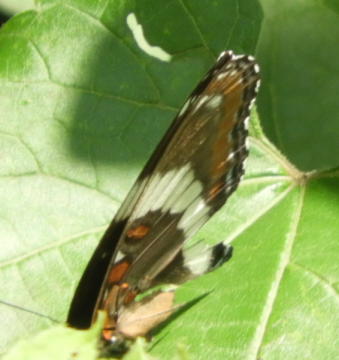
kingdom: Animalia
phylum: Arthropoda
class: Insecta
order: Lepidoptera
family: Nymphalidae
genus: Limenitis
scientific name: Limenitis arthemis
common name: Red-spotted Admiral
